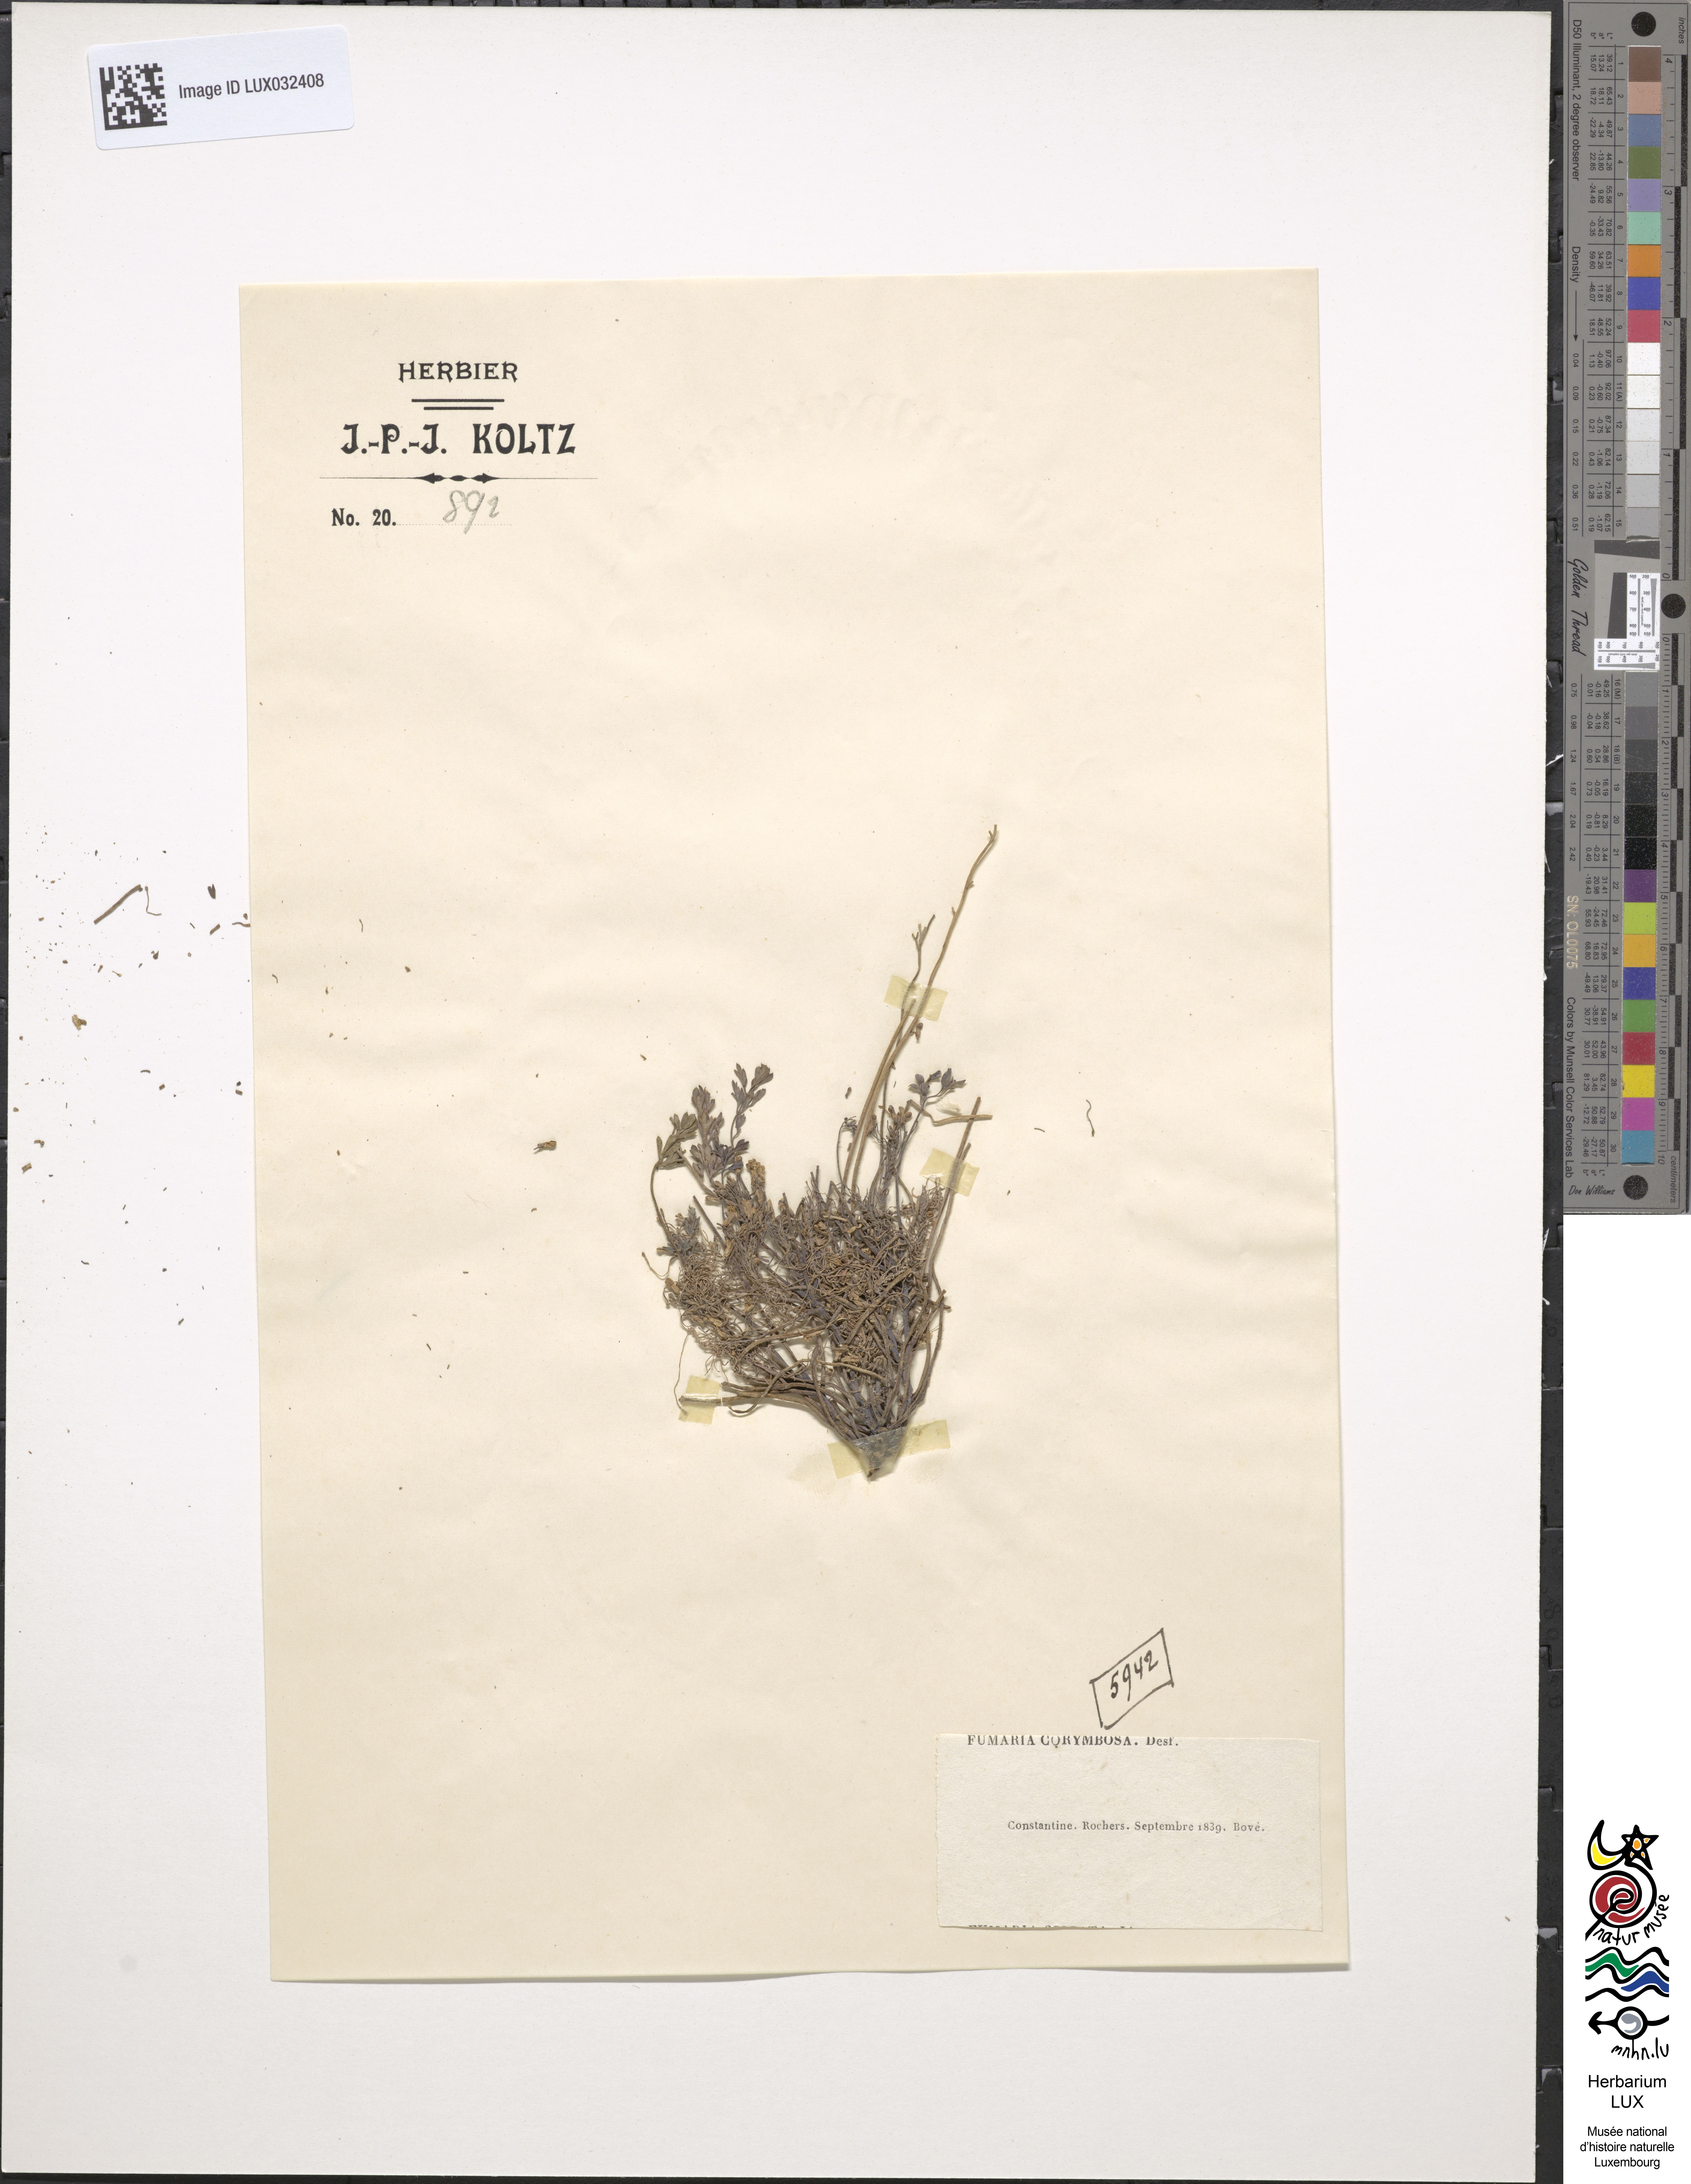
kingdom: Plantae
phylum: Tracheophyta
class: Magnoliopsida
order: Ranunculales
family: Papaveraceae
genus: Rupicapnos
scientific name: Rupicapnos africana
